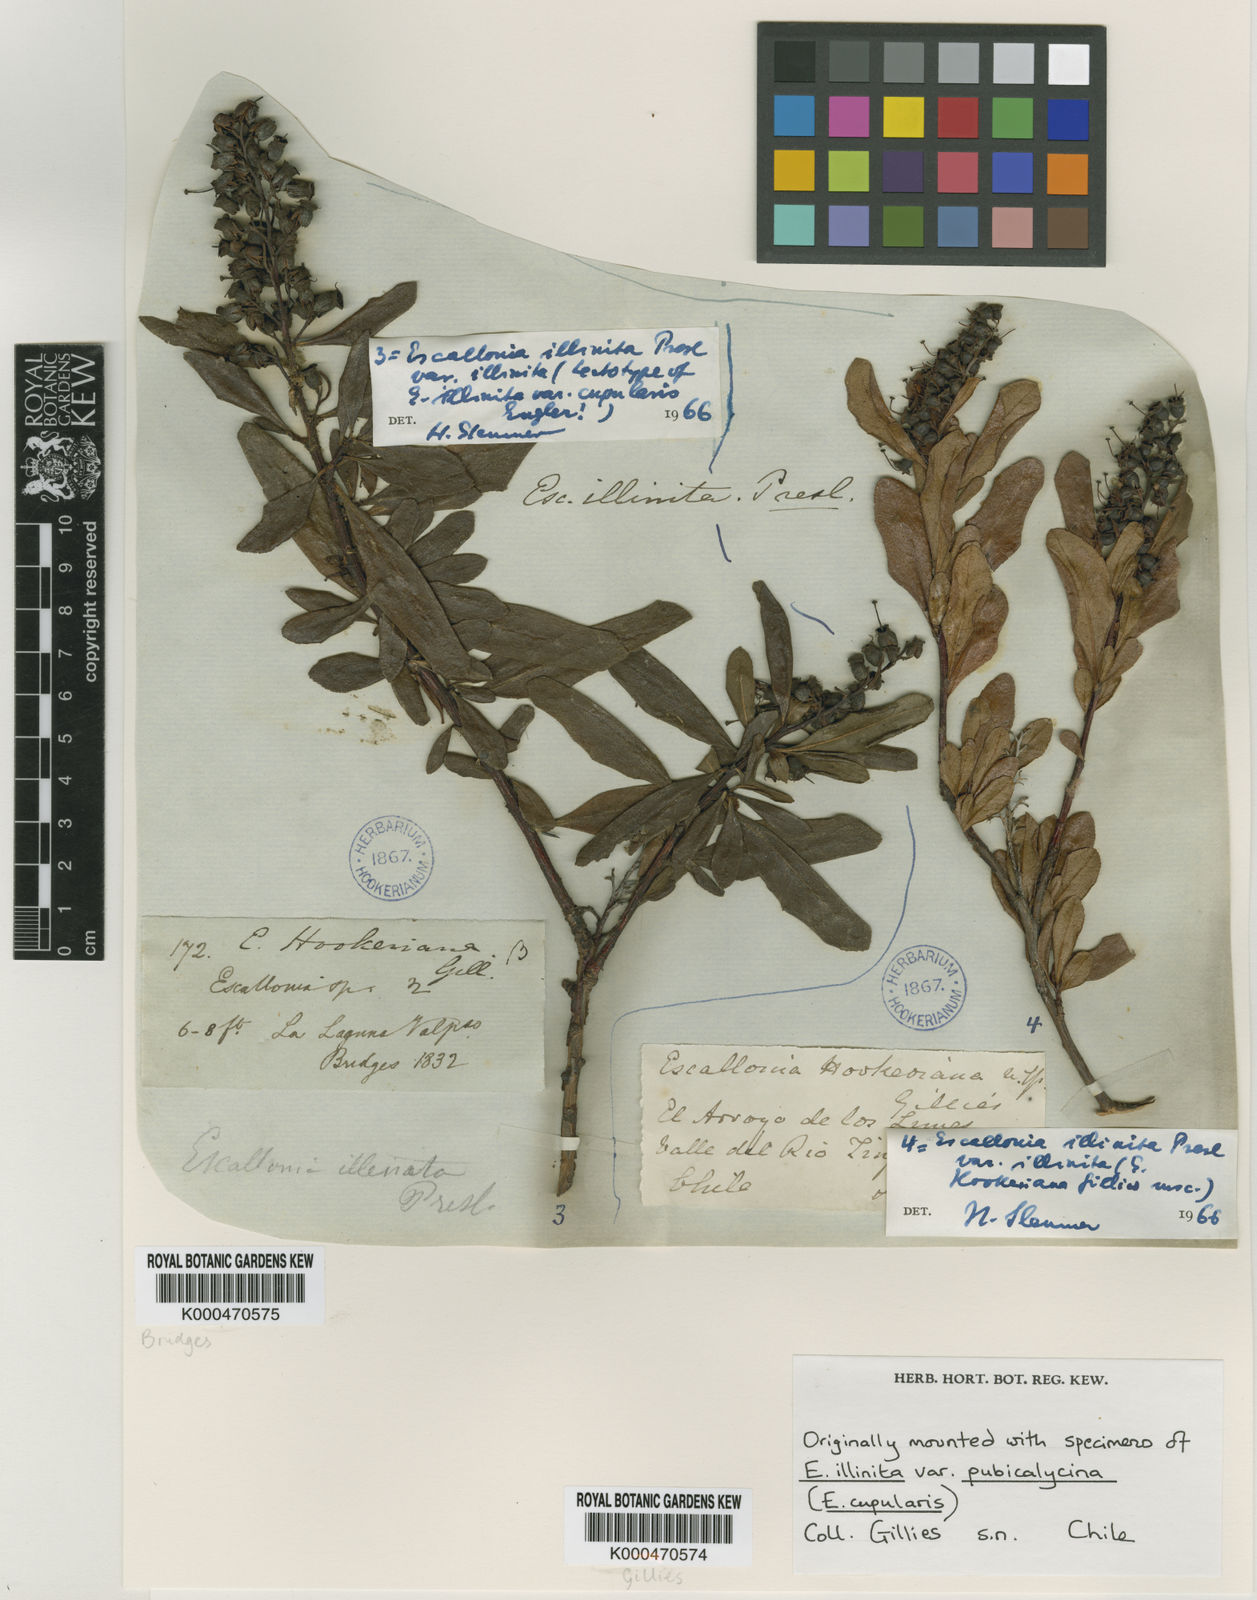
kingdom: Plantae
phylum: Tracheophyta
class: Magnoliopsida
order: Escalloniales
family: Escalloniaceae
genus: Escallonia
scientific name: Escallonia illinita
